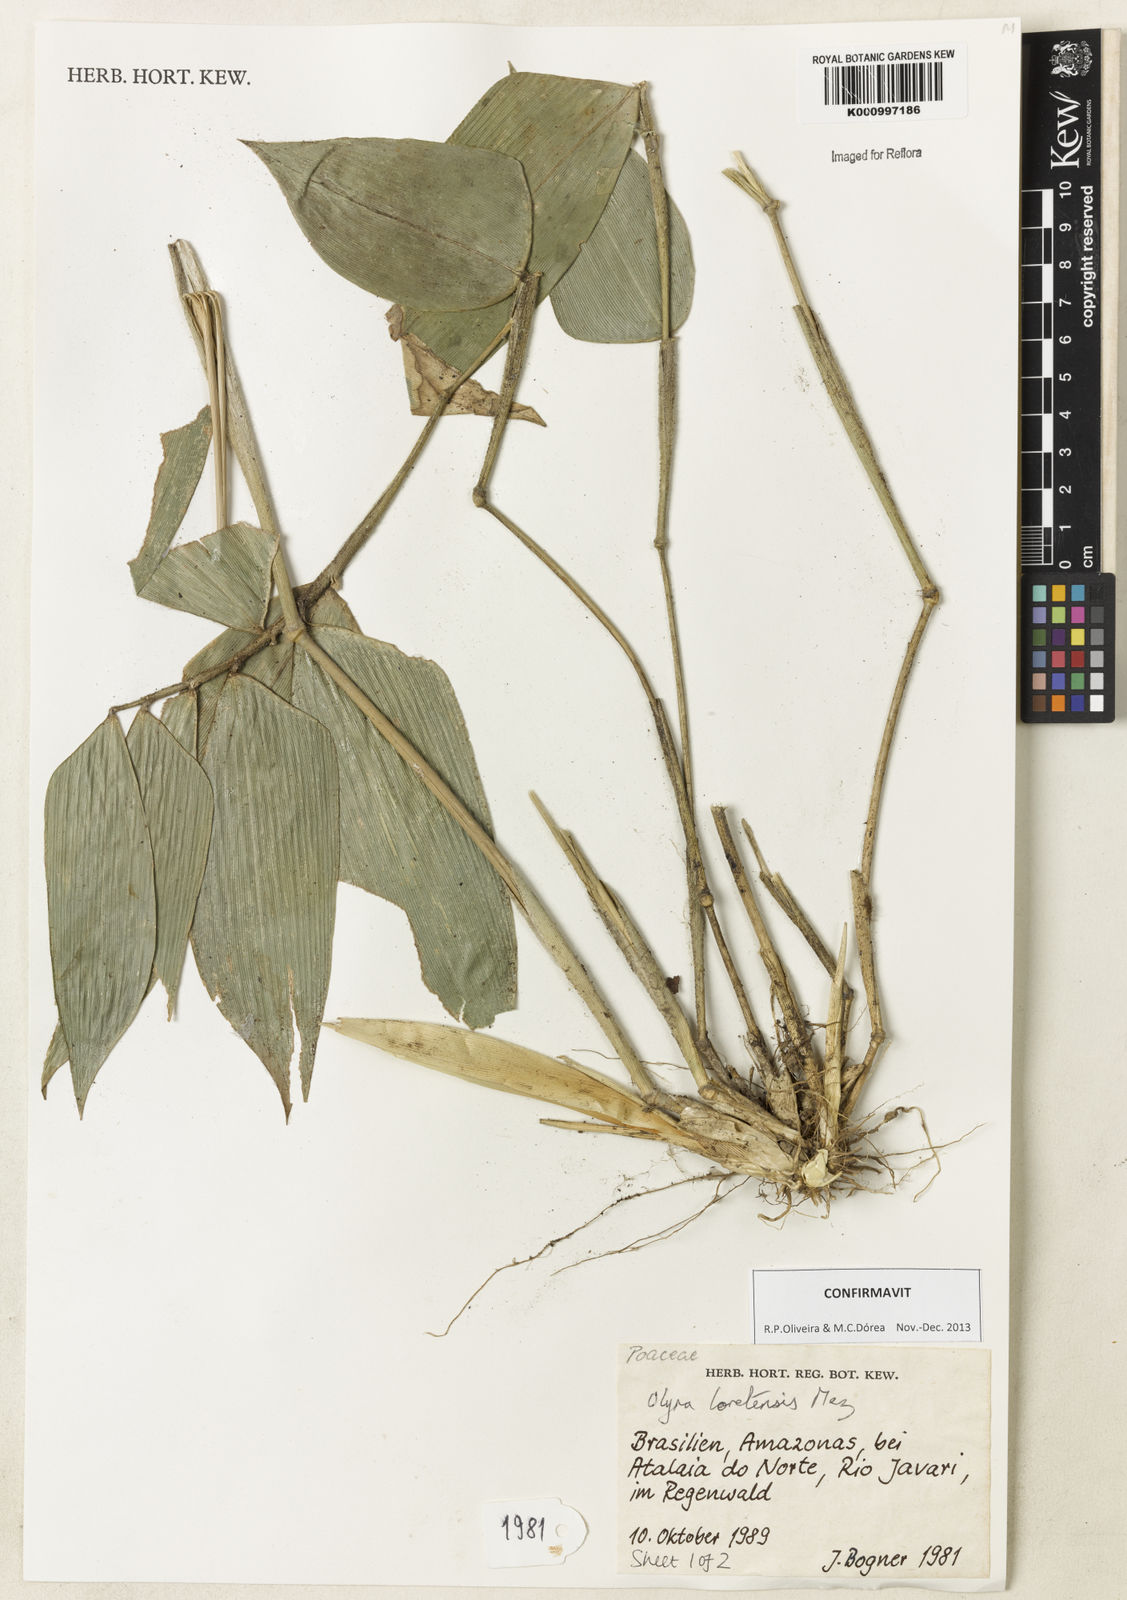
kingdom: Plantae
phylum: Tracheophyta
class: Liliopsida
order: Poales
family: Poaceae
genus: Olyra
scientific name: Olyra loretensis
